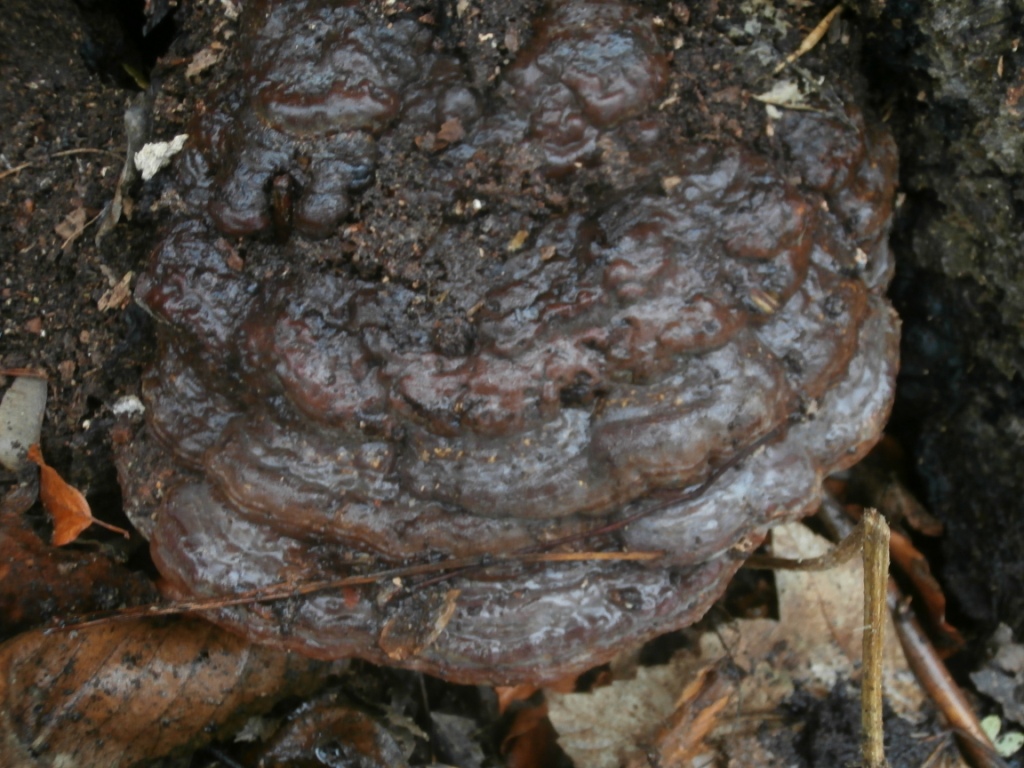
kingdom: Fungi
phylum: Basidiomycota
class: Agaricomycetes
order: Polyporales
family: Polyporaceae
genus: Ganoderma
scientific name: Ganoderma pfeifferi
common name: kobberrød lakporesvamp
